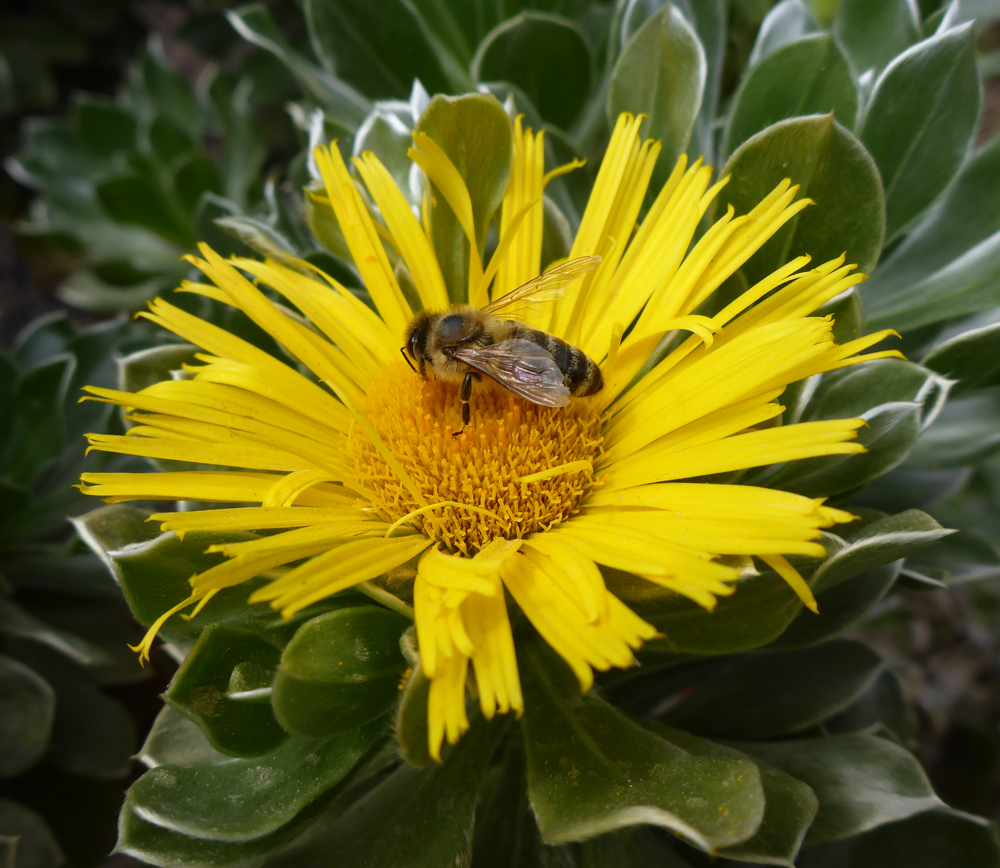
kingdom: Animalia
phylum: Arthropoda
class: Insecta
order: Hymenoptera
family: Apidae
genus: Apis
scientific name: Apis mellifera
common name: Honey bee
